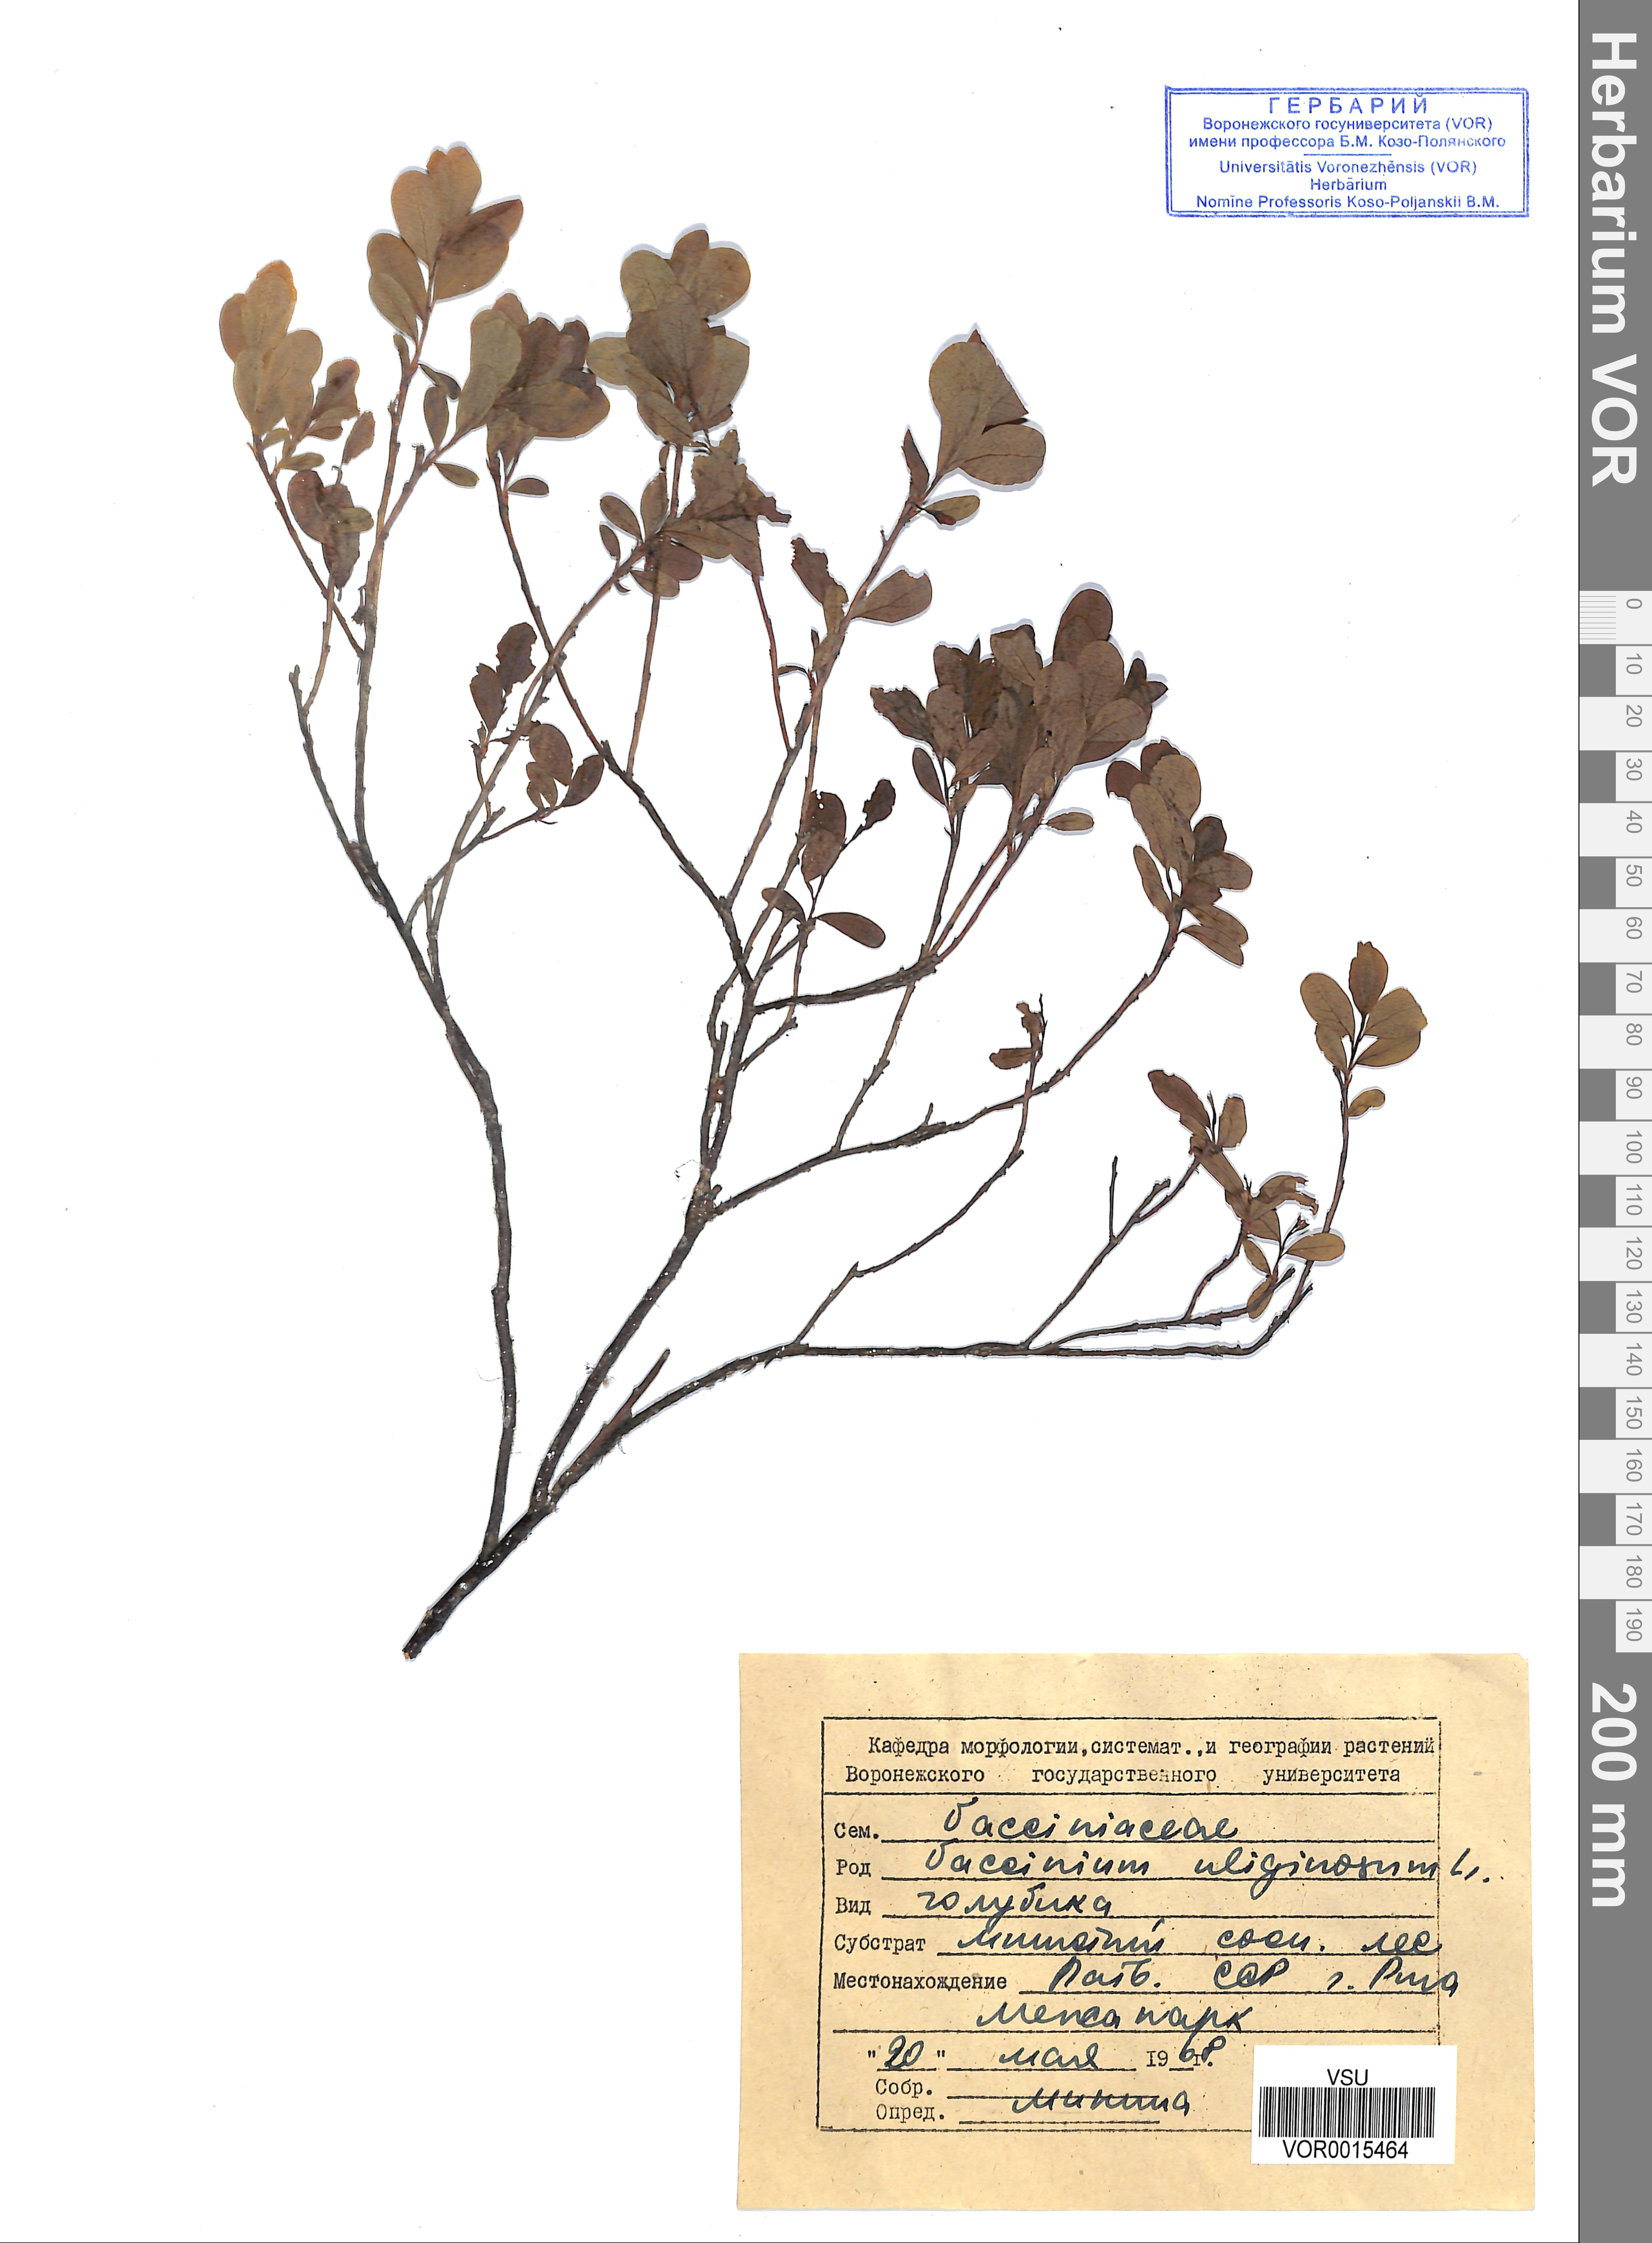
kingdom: Plantae
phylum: Tracheophyta
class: Magnoliopsida
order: Ericales
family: Ericaceae
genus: Vaccinium
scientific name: Vaccinium uliginosum
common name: Bog bilberry
